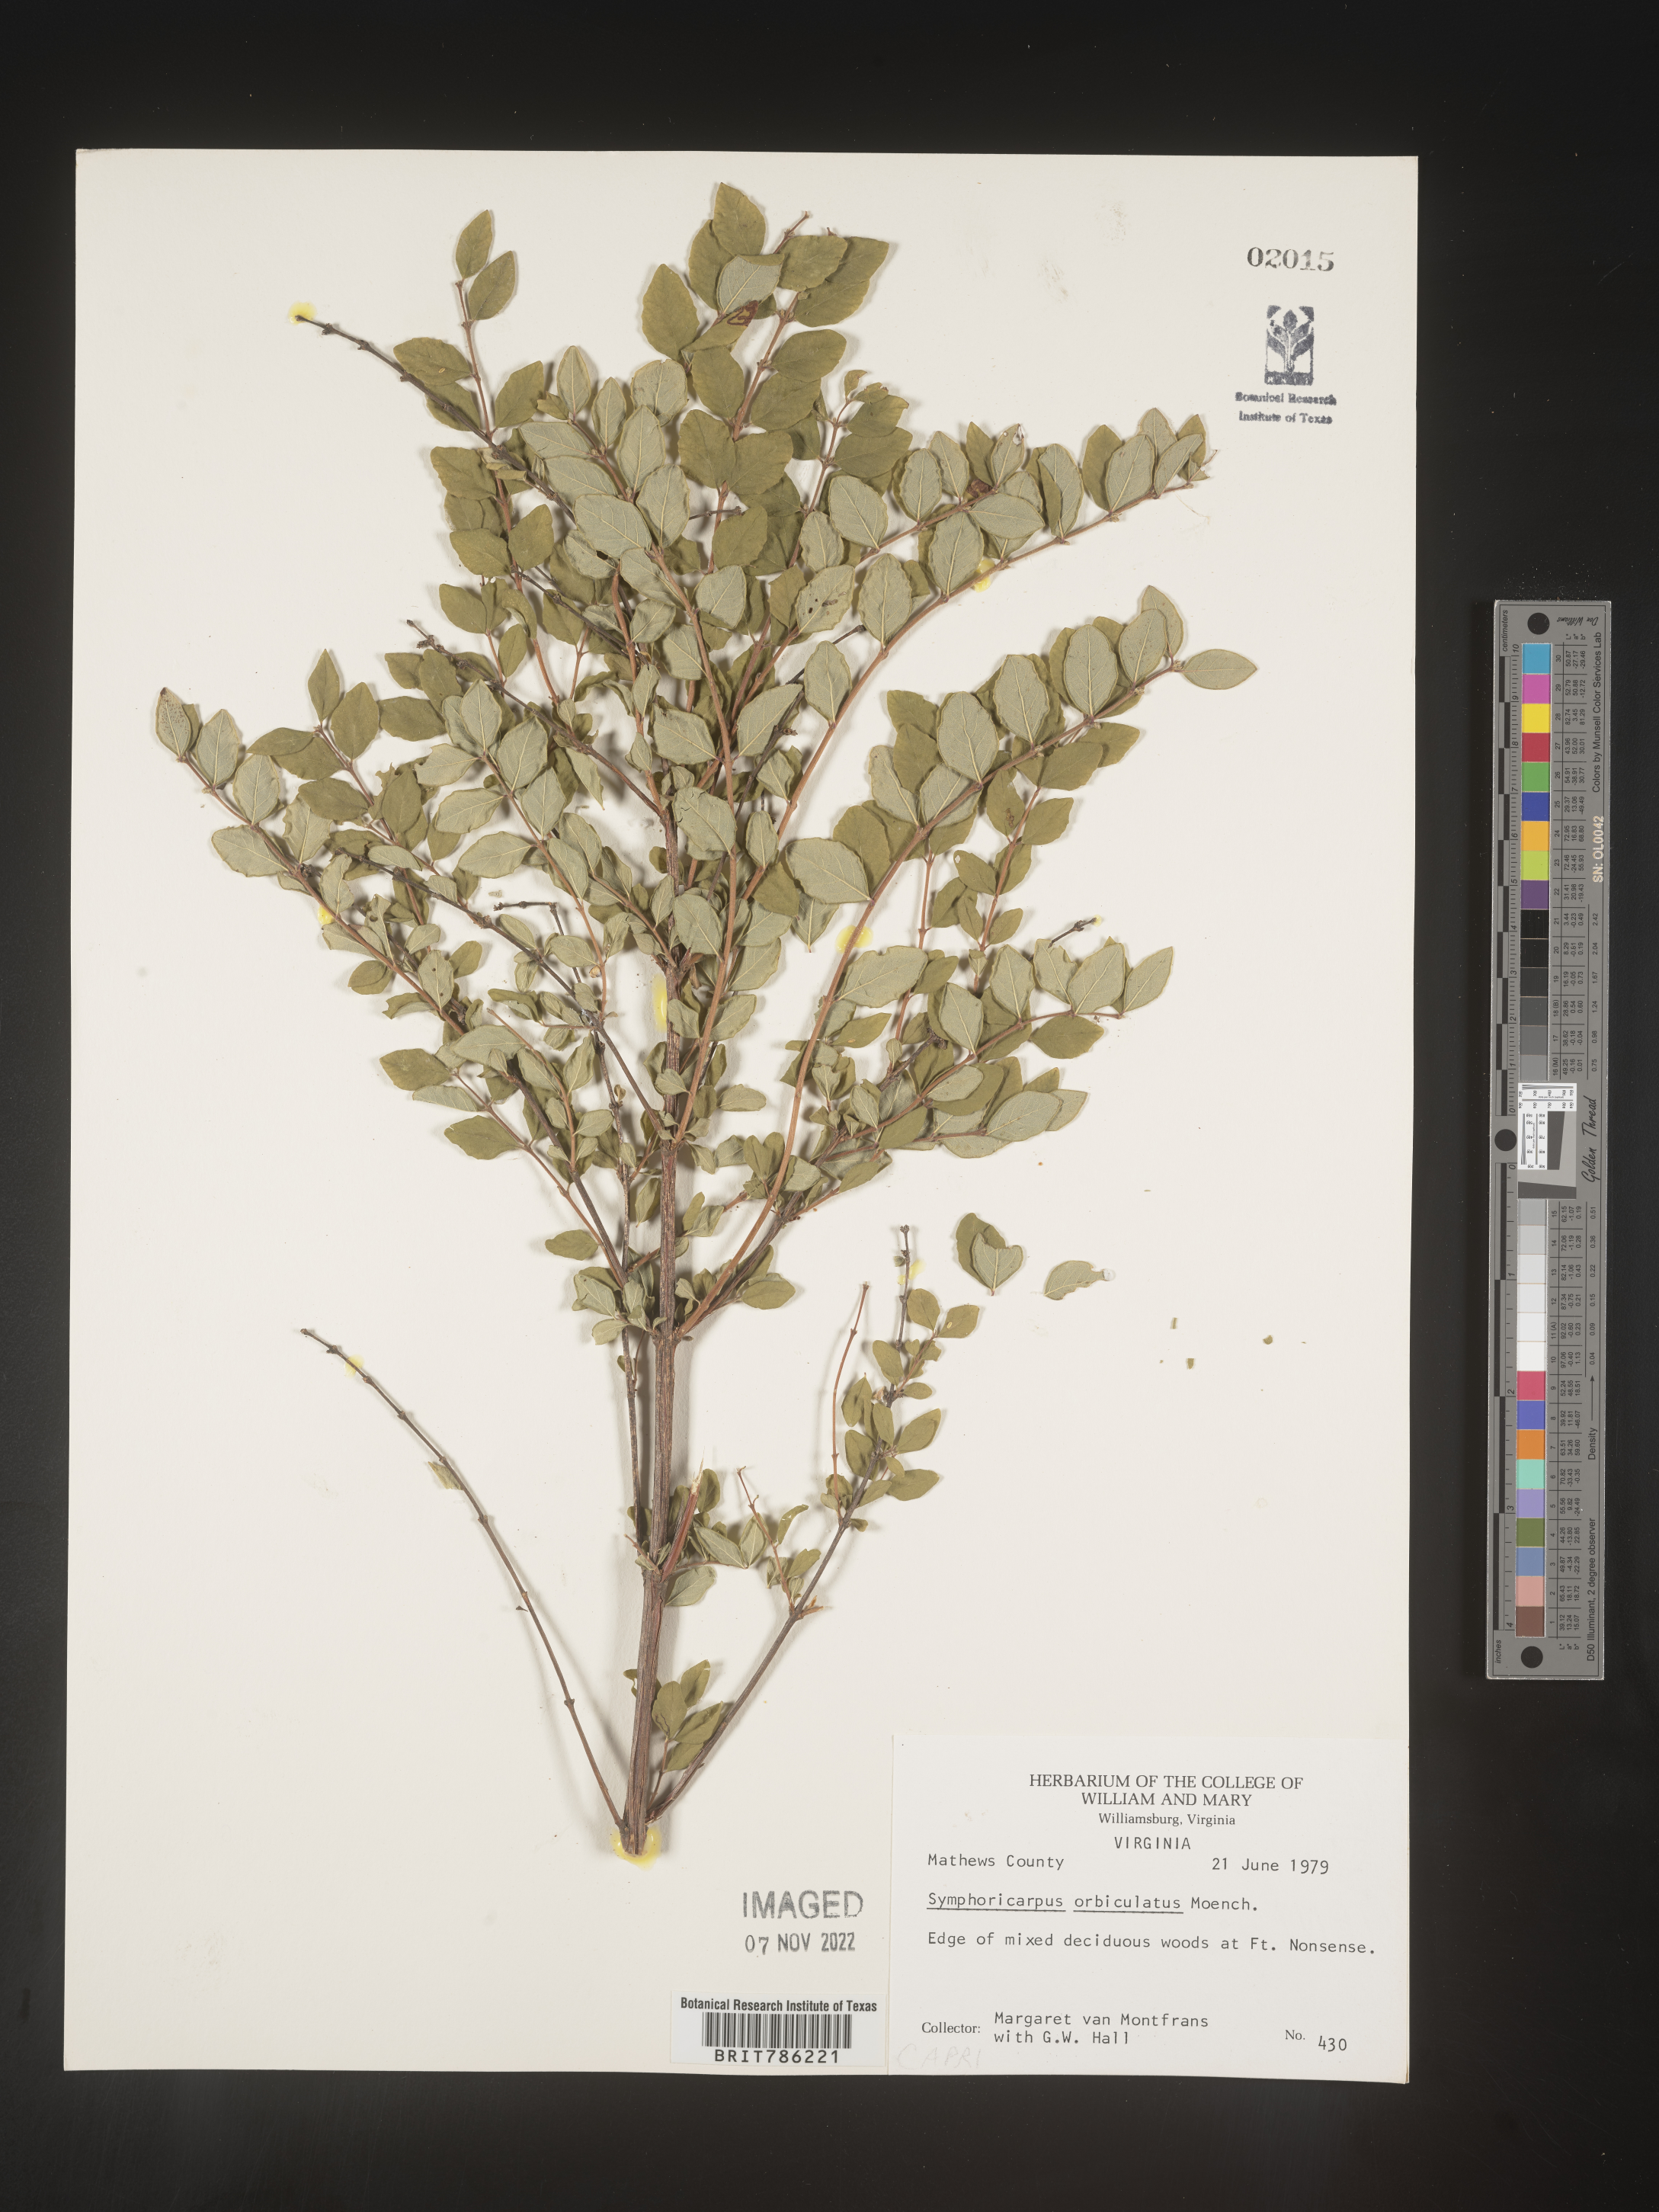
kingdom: Plantae
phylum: Tracheophyta
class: Magnoliopsida
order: Dipsacales
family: Caprifoliaceae
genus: Symphoricarpos
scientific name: Symphoricarpos orbiculatus
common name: Coralberry
